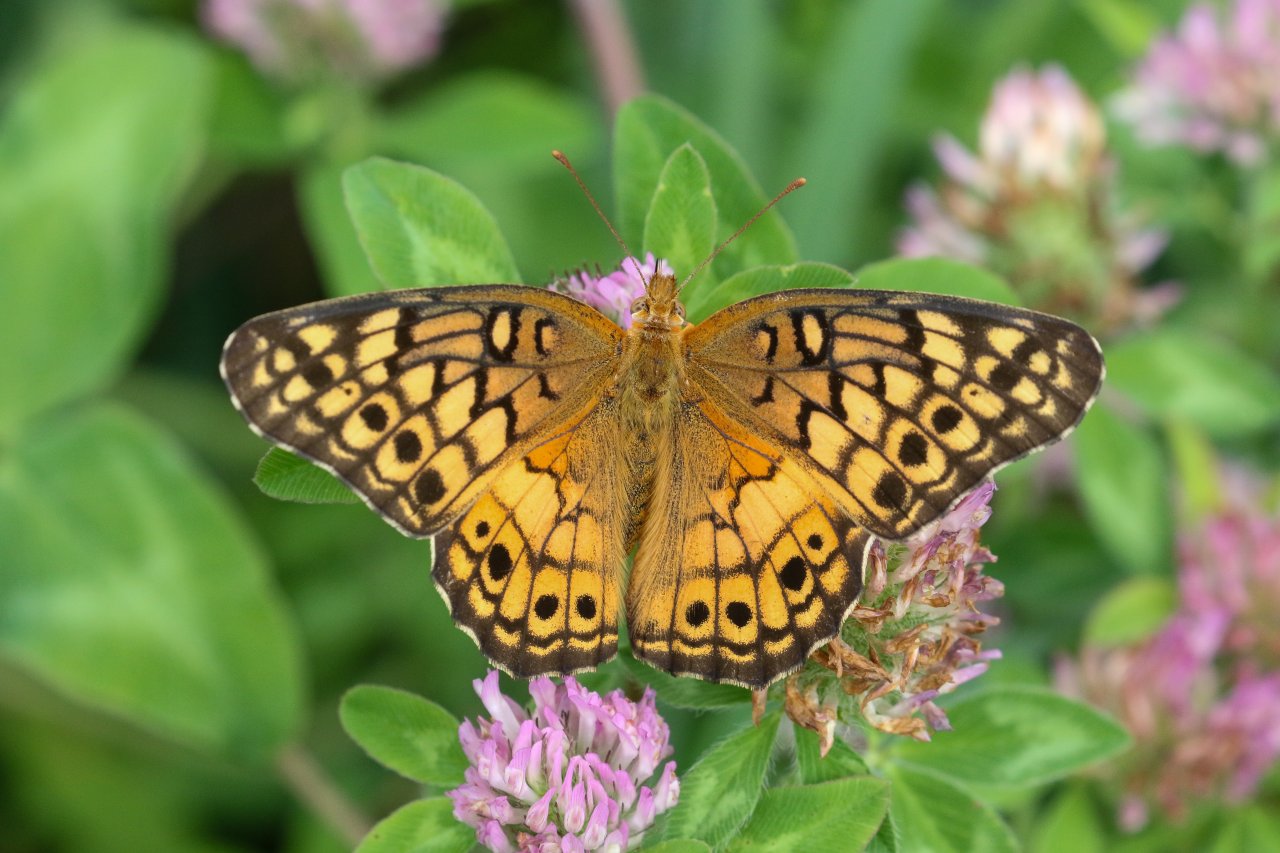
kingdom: Animalia
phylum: Arthropoda
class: Insecta
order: Lepidoptera
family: Nymphalidae
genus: Euptoieta
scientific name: Euptoieta claudia
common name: Variegated Fritillary
